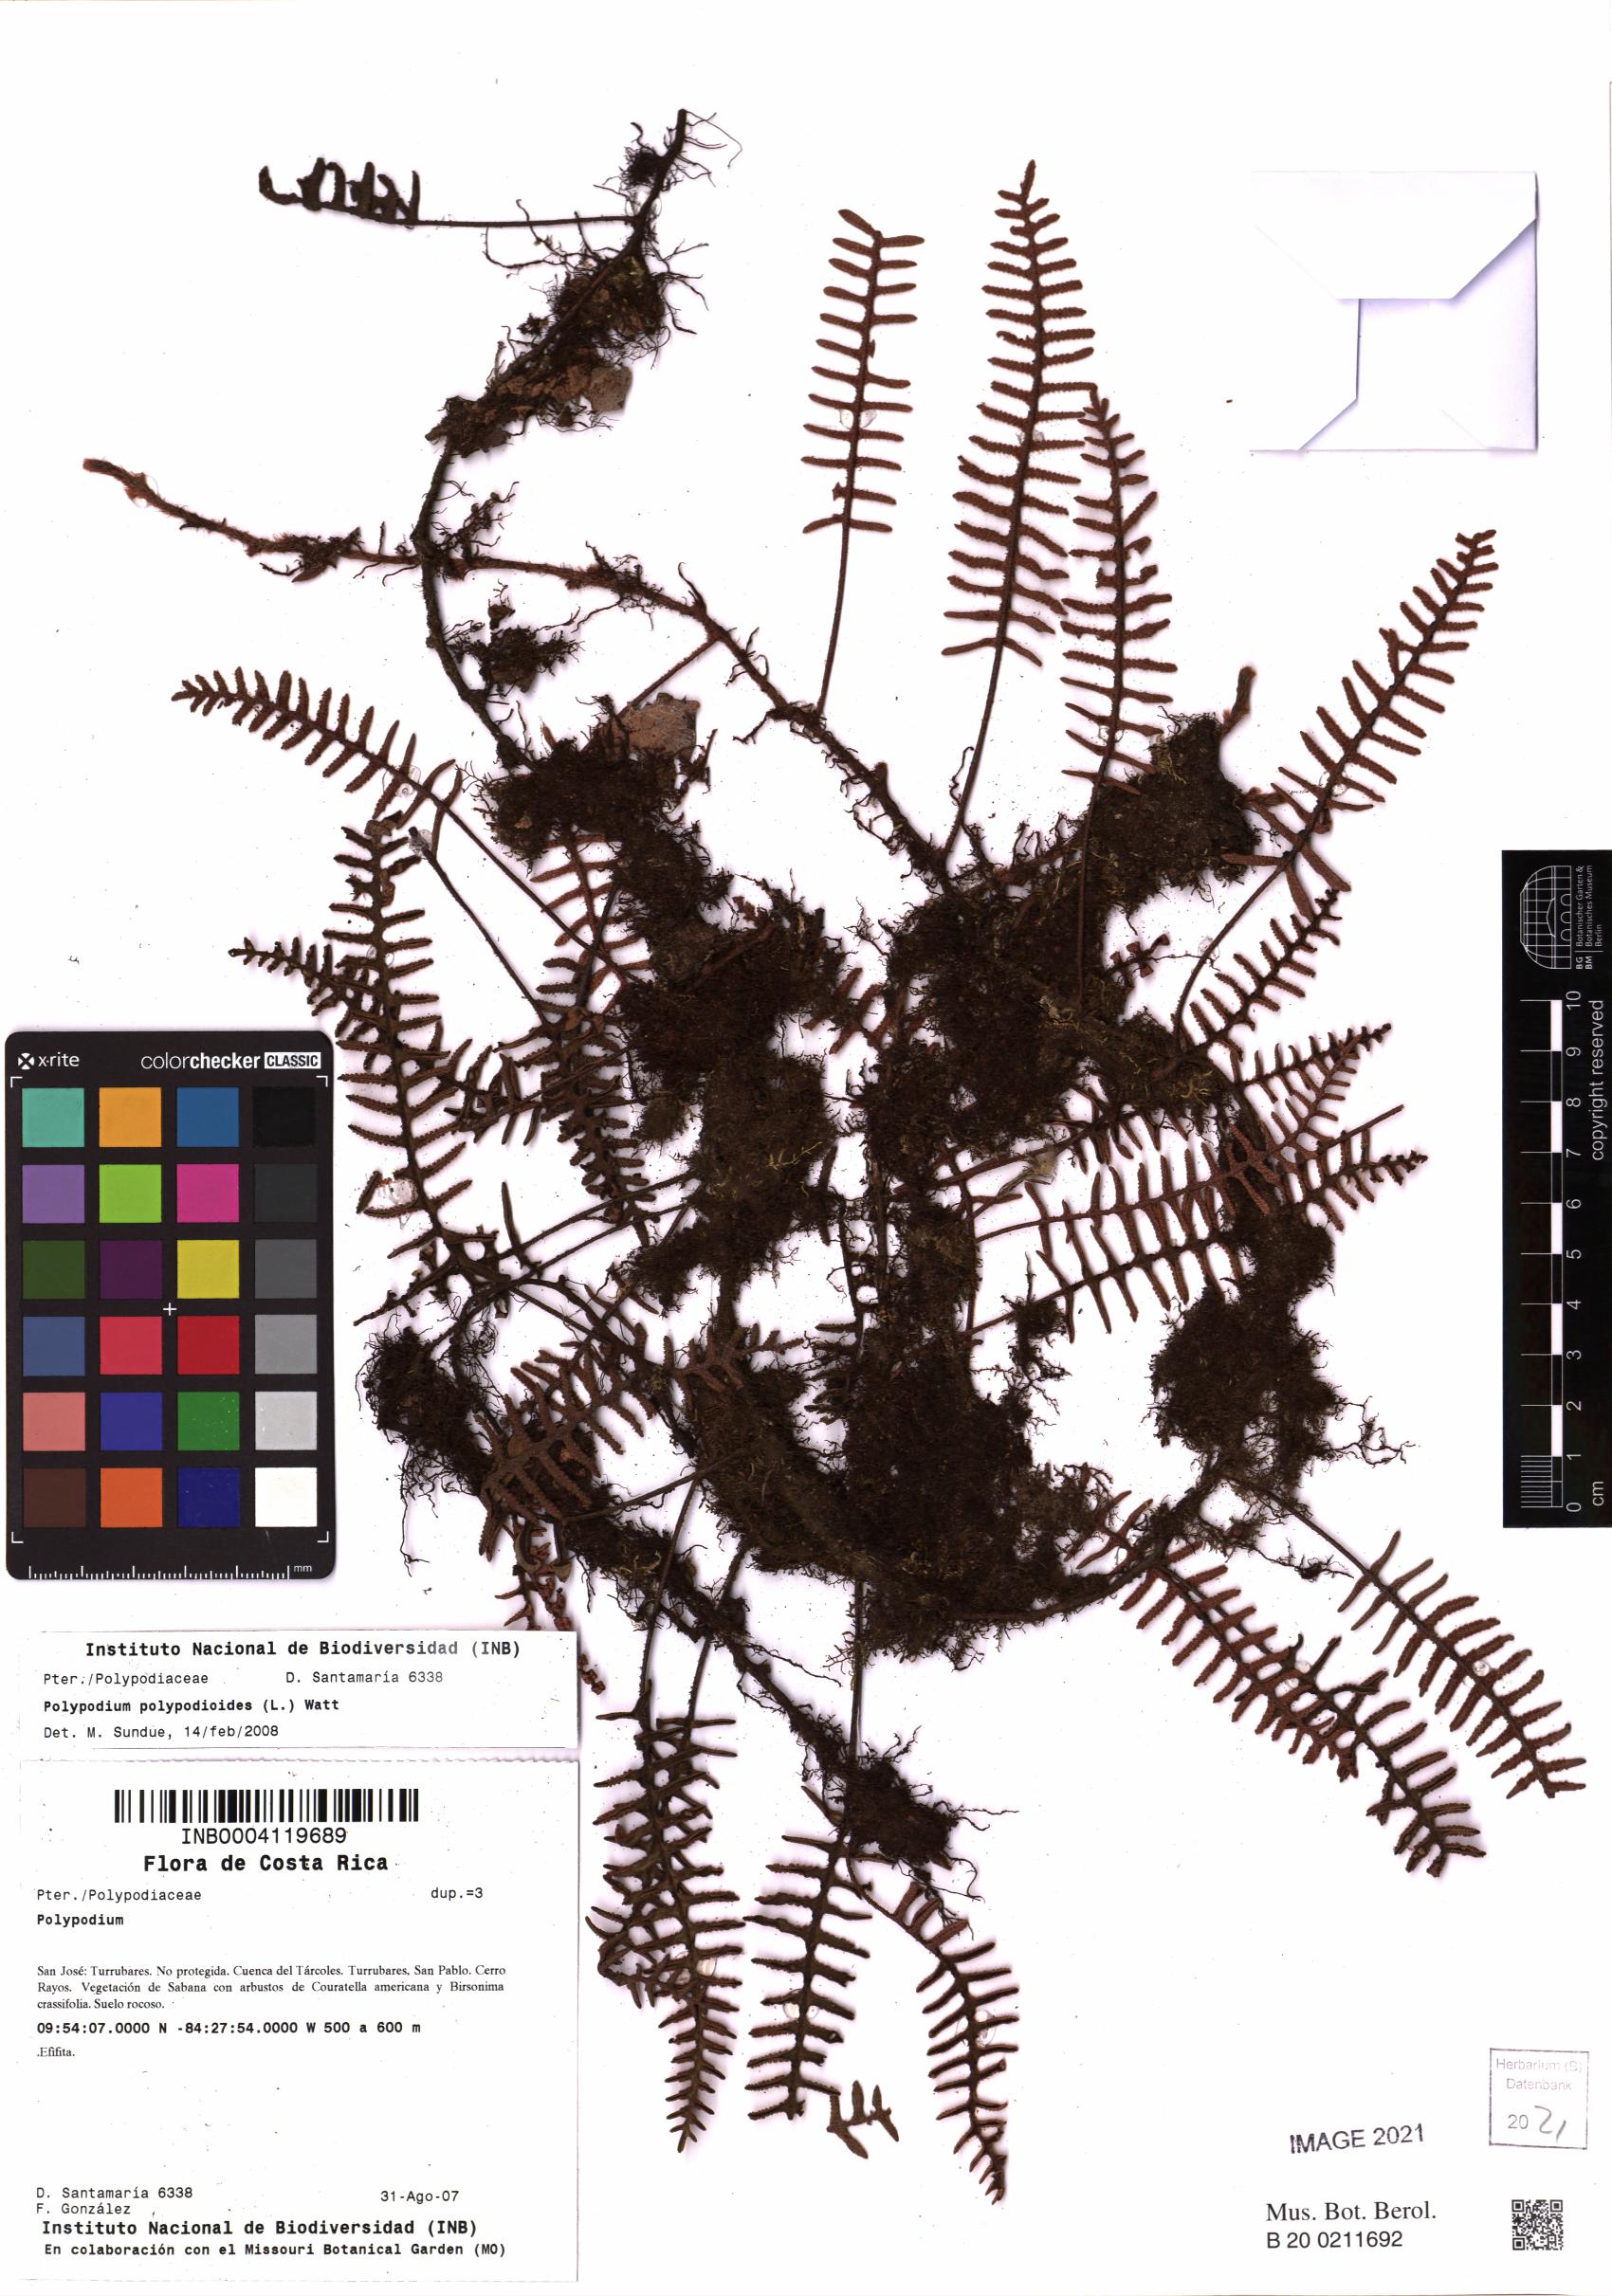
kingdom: Plantae
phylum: Tracheophyta
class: Polypodiopsida
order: Polypodiales
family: Polypodiaceae
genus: Pleopeltis
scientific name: Pleopeltis polypodioides
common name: Resurrection fern
